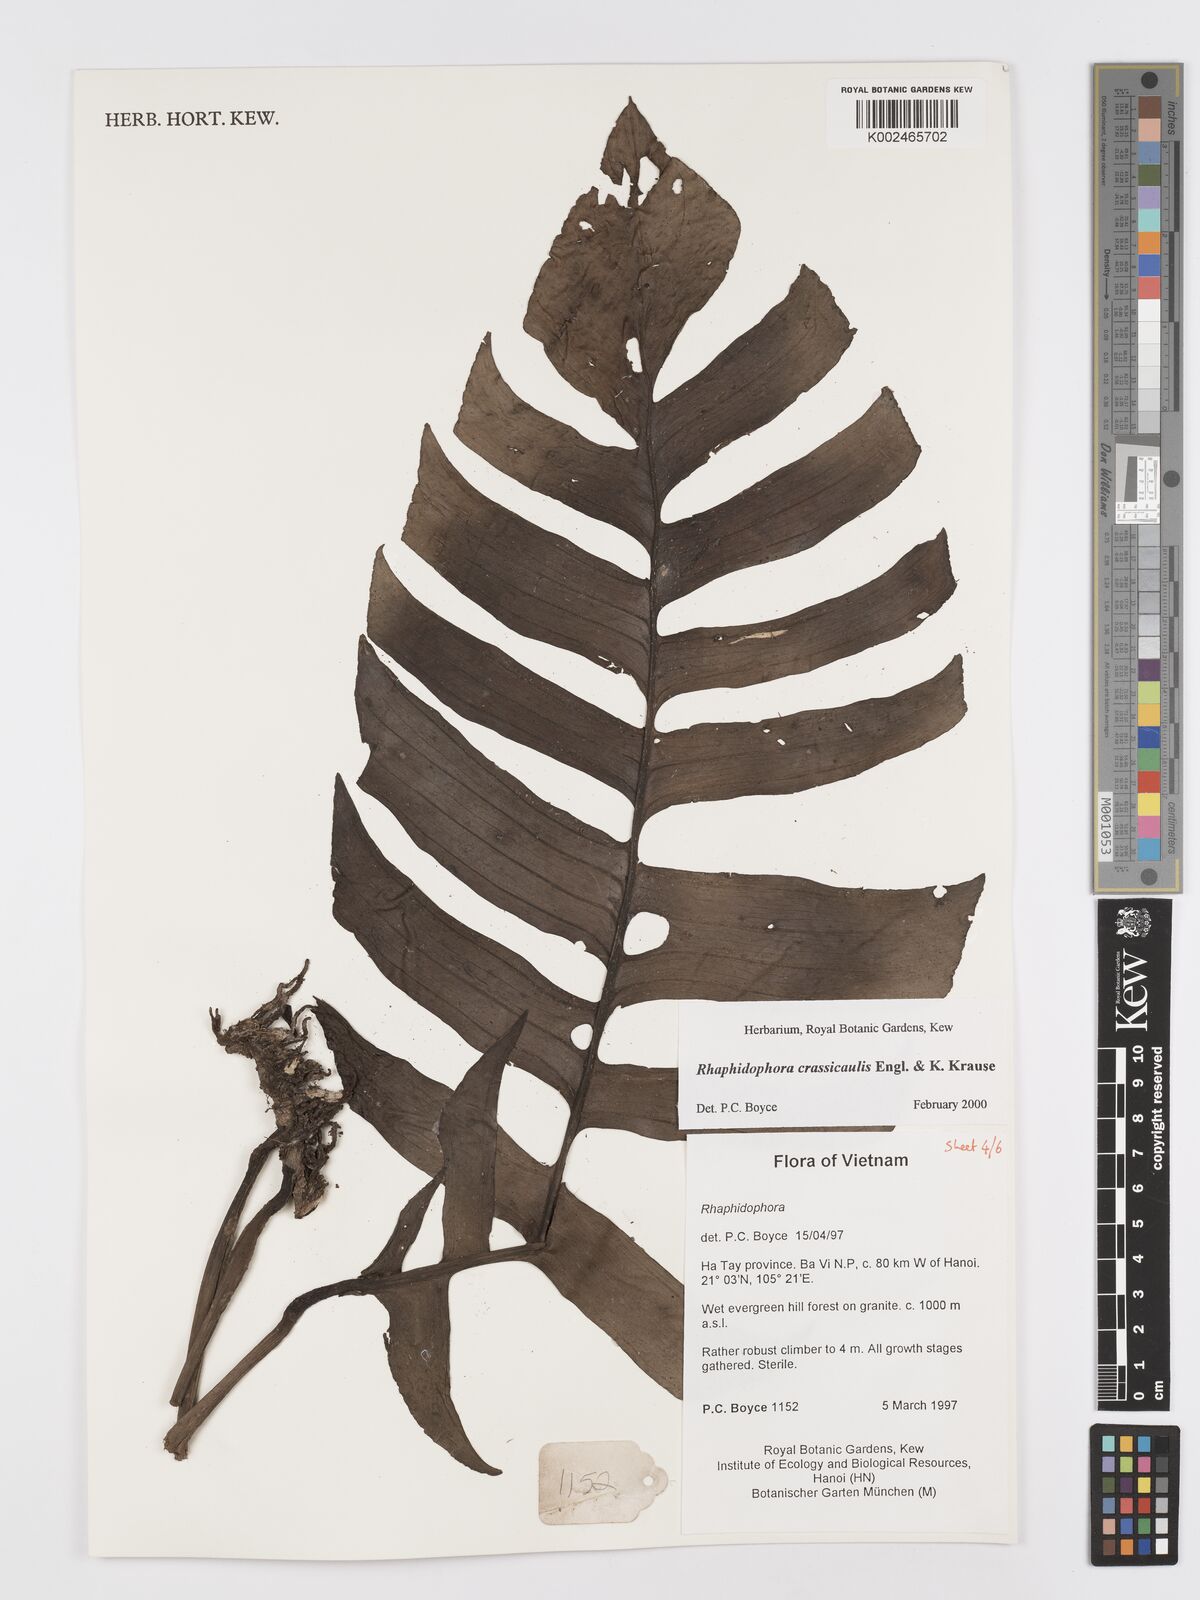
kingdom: Plantae
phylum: Tracheophyta
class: Liliopsida
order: Alismatales
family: Araceae
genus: Rhaphidophora
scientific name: Rhaphidophora crassicaulis
